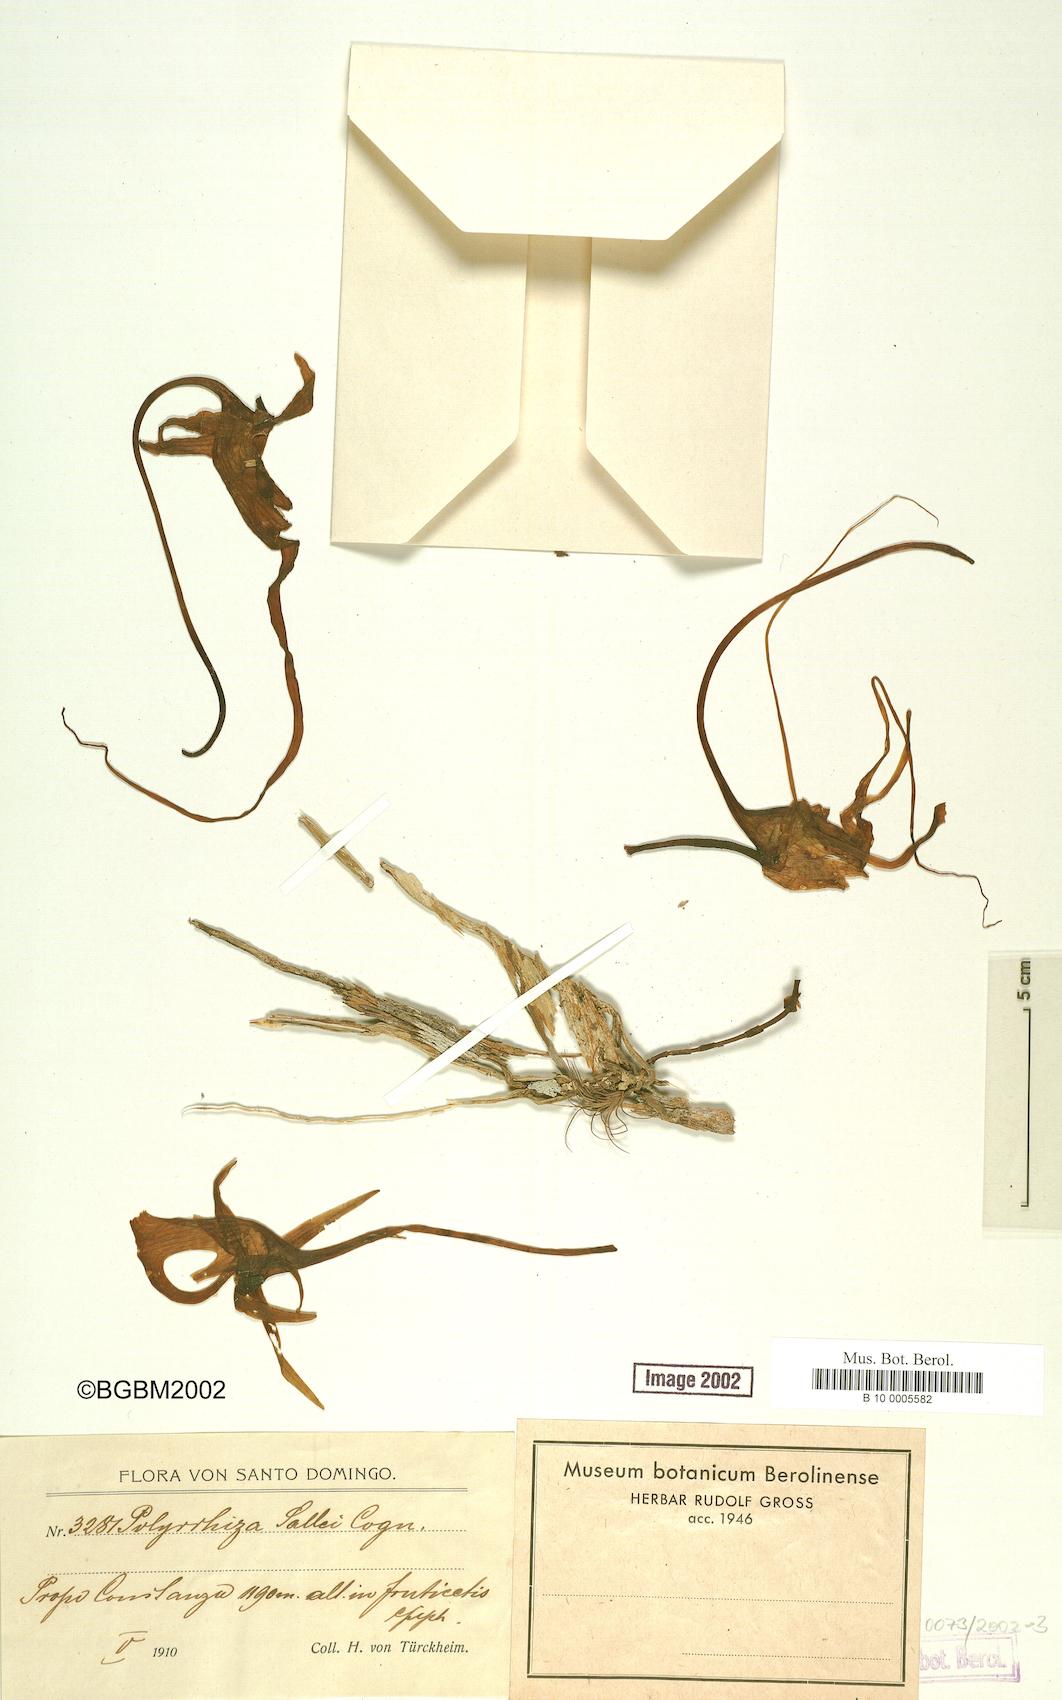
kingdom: Plantae
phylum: Tracheophyta
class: Liliopsida
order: Asparagales
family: Orchidaceae
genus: Dendrophylax
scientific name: Dendrophylax sallei
